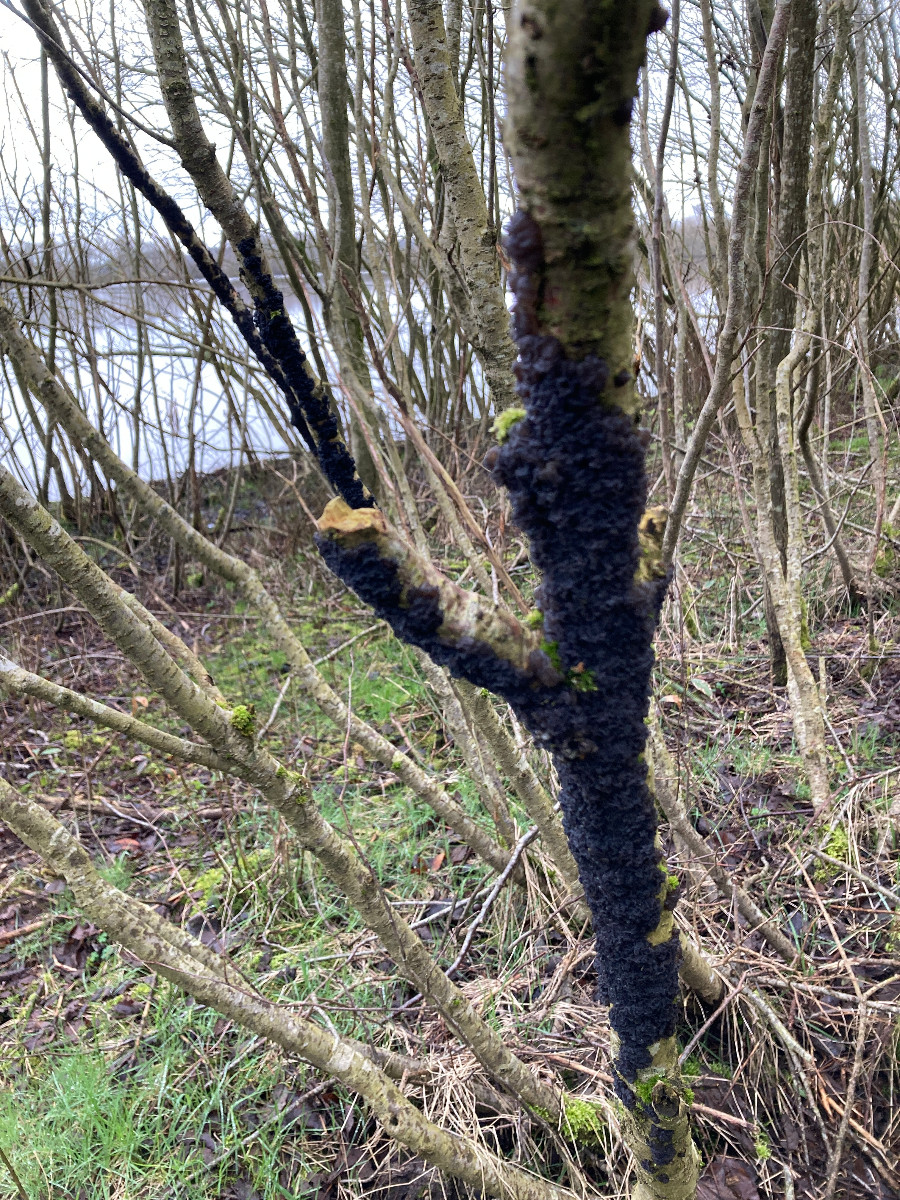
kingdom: Fungi
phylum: Basidiomycota
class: Agaricomycetes
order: Auriculariales
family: Auriculariaceae
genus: Exidia
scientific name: Exidia nigricans
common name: almindelig bævretop
